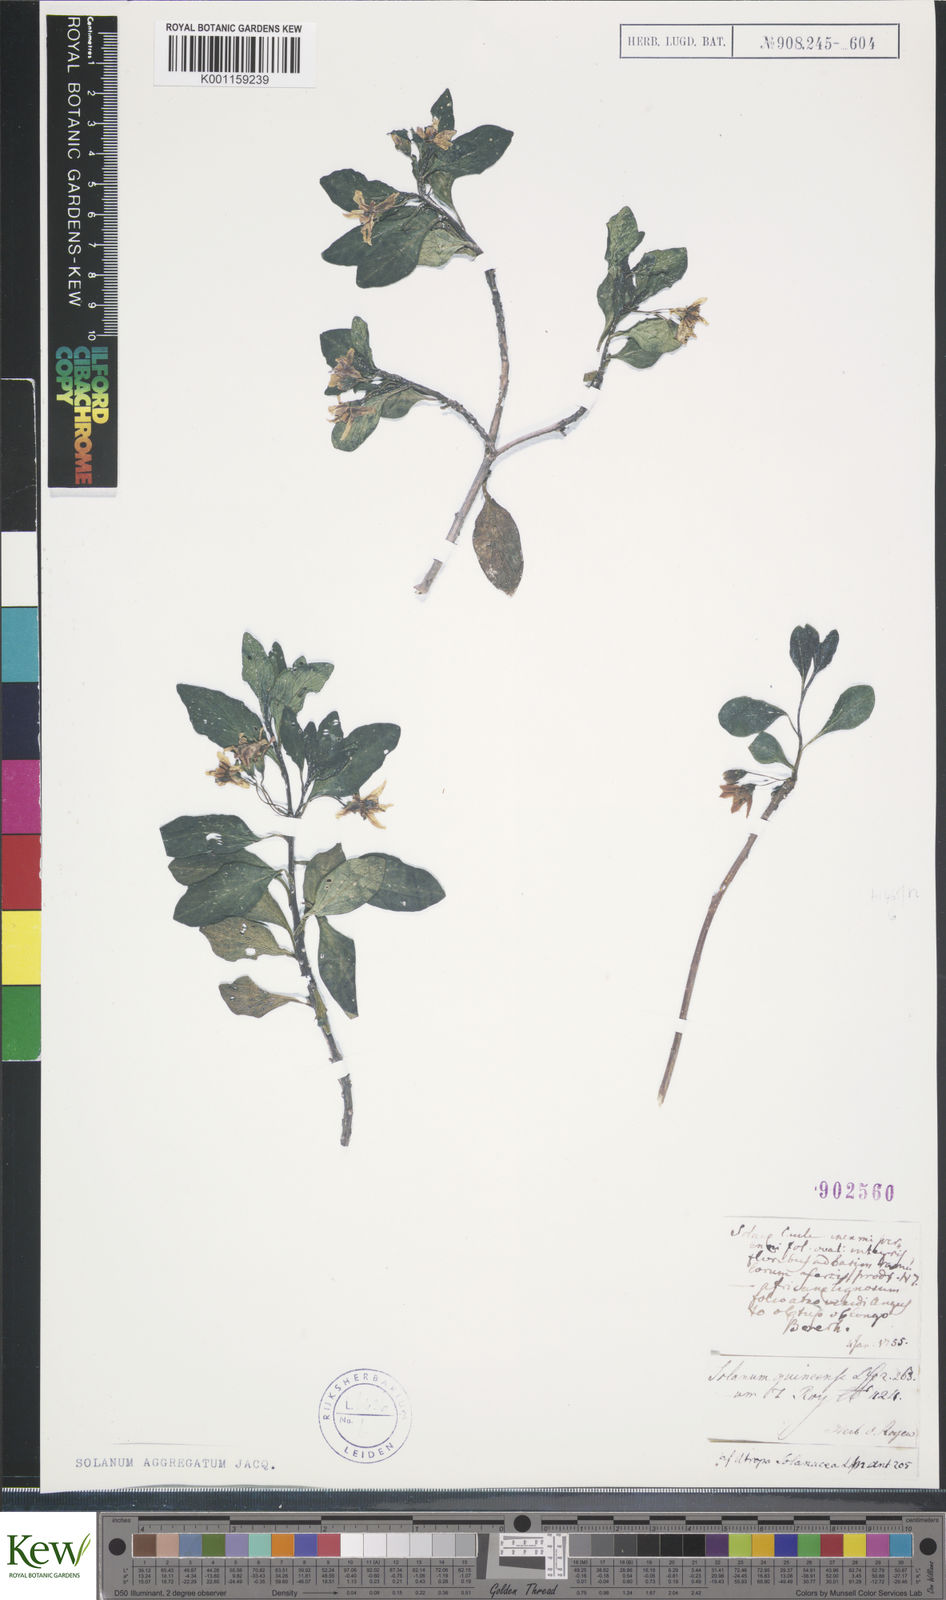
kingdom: Plantae
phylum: Tracheophyta
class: Magnoliopsida
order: Solanales
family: Solanaceae
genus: Solanum
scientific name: Solanum guineense
